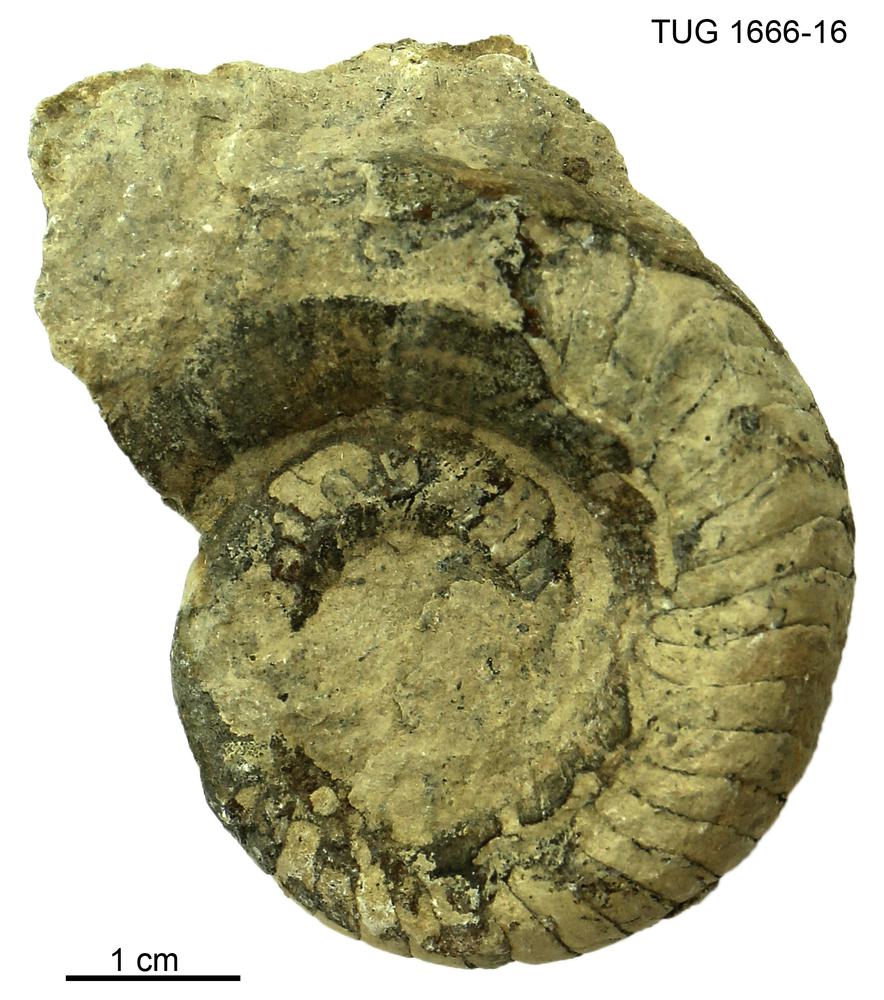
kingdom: Animalia
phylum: Mollusca
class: Cephalopoda
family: Trocholitidae
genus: Discoceras
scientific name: Discoceras
